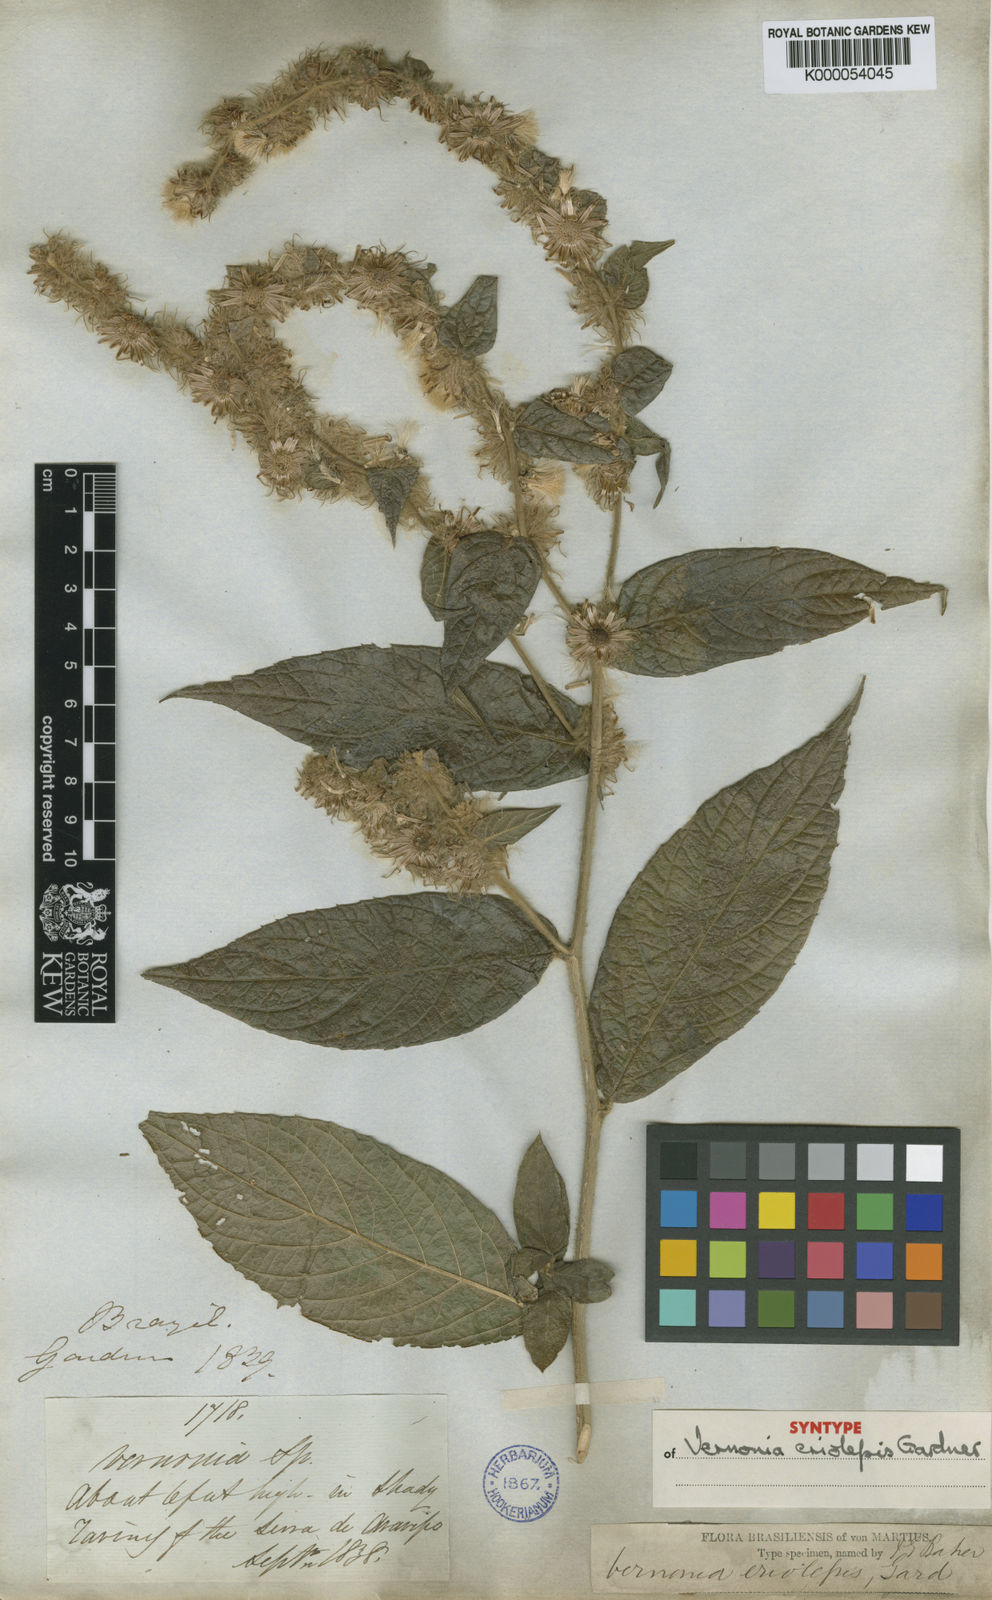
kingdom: Plantae
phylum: Tracheophyta
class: Magnoliopsida
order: Asterales
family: Asteraceae
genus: Lepidaploa
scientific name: Lepidaploa eriolepis
